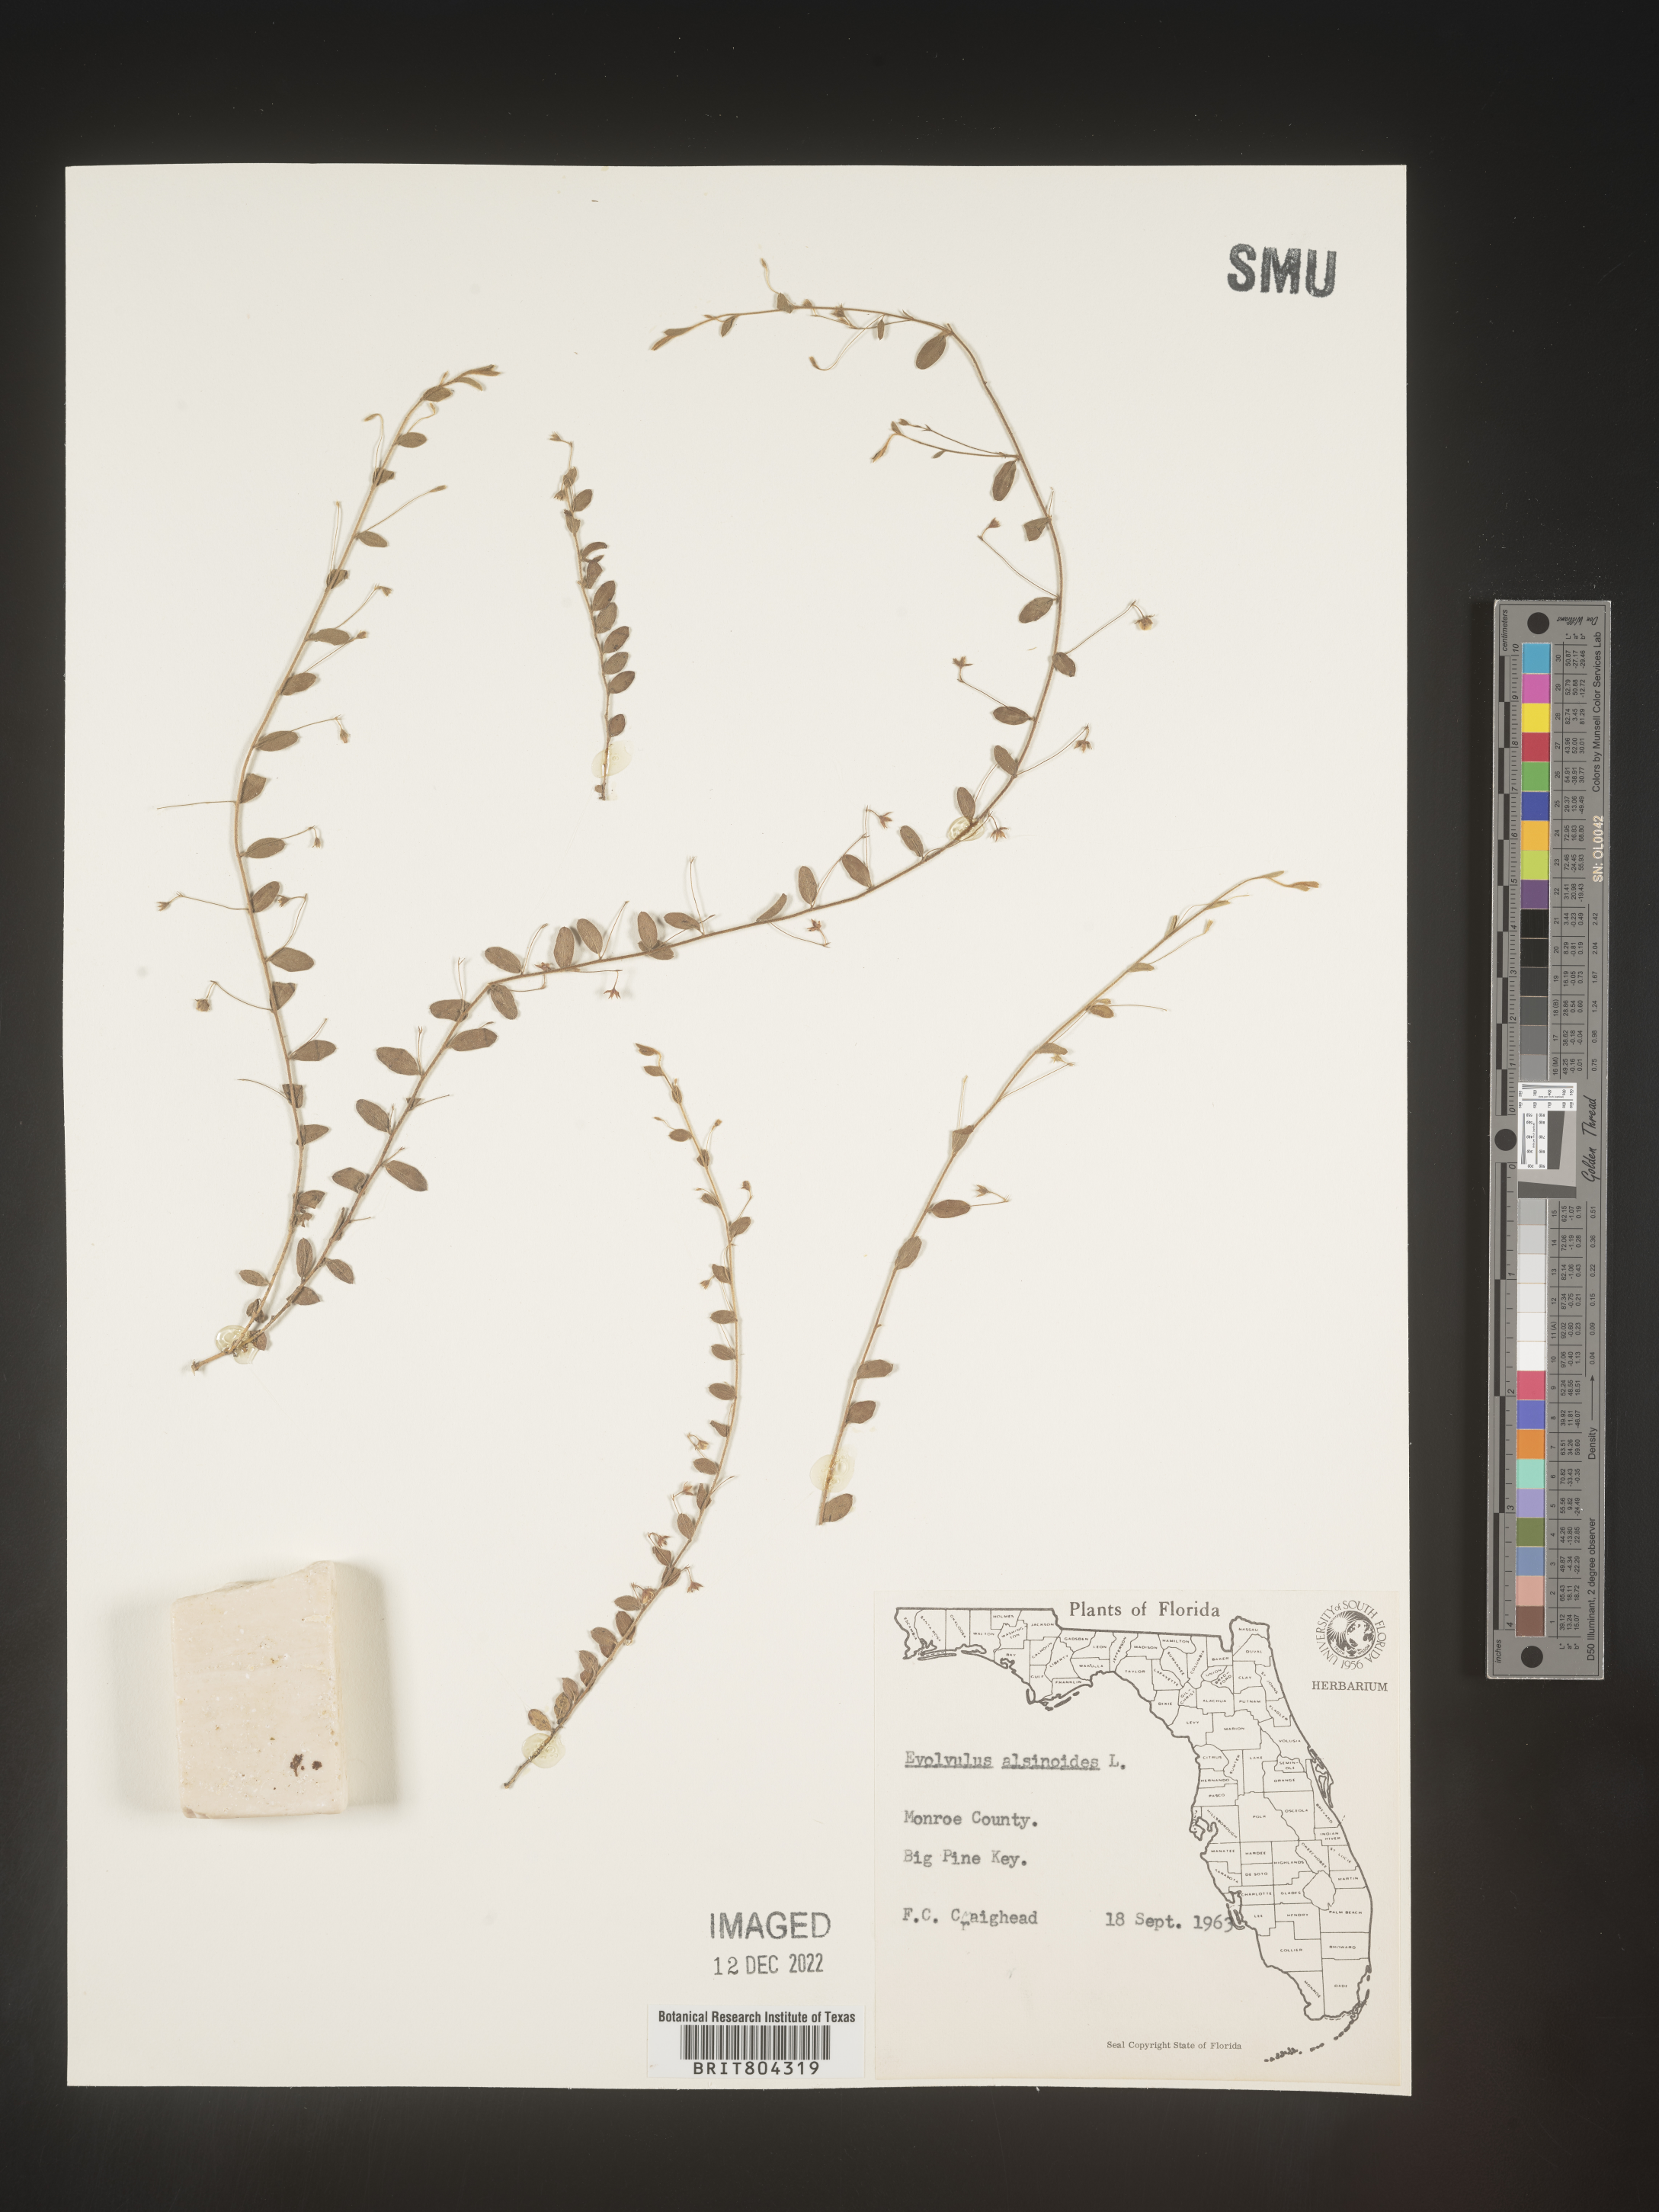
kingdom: Plantae
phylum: Tracheophyta
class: Magnoliopsida
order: Solanales
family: Convolvulaceae
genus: Evolvulus
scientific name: Evolvulus alsinoides
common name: Slender dwarf morning-glory
